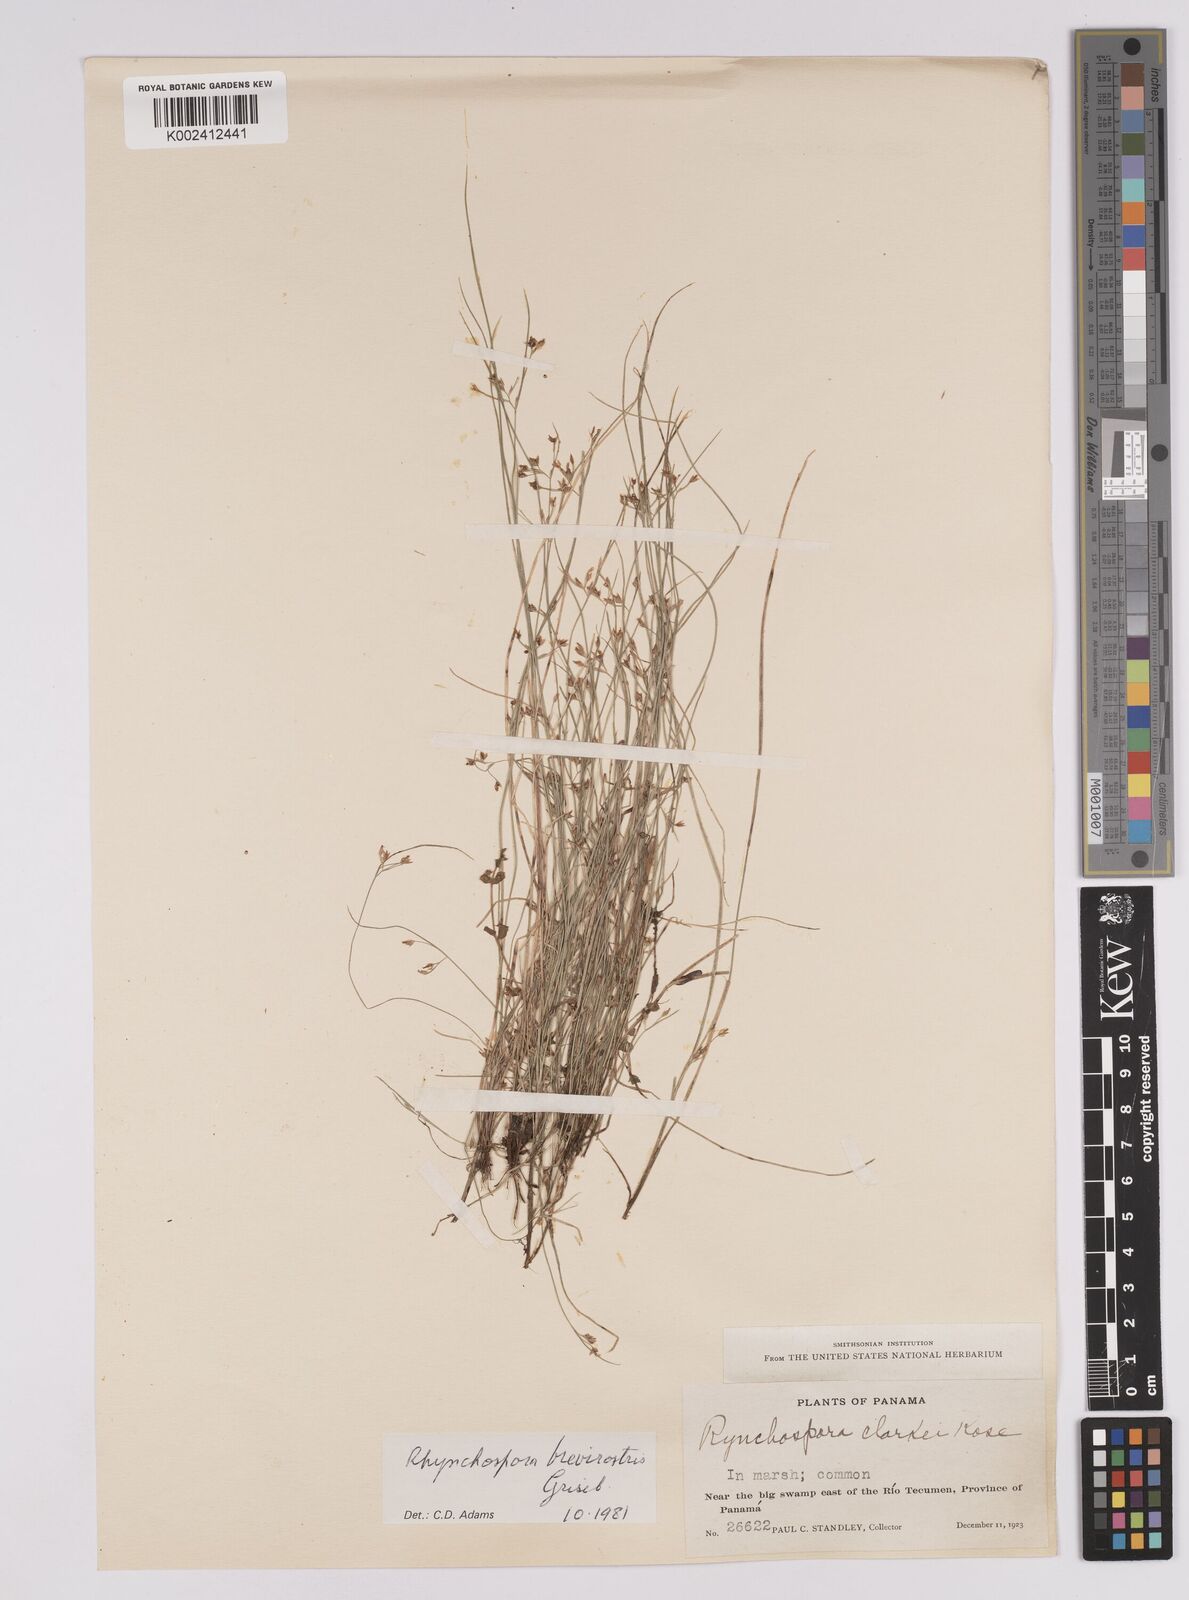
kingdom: Plantae
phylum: Tracheophyta
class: Liliopsida
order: Poales
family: Cyperaceae
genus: Rhynchospora
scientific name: Rhynchospora brevirostris
